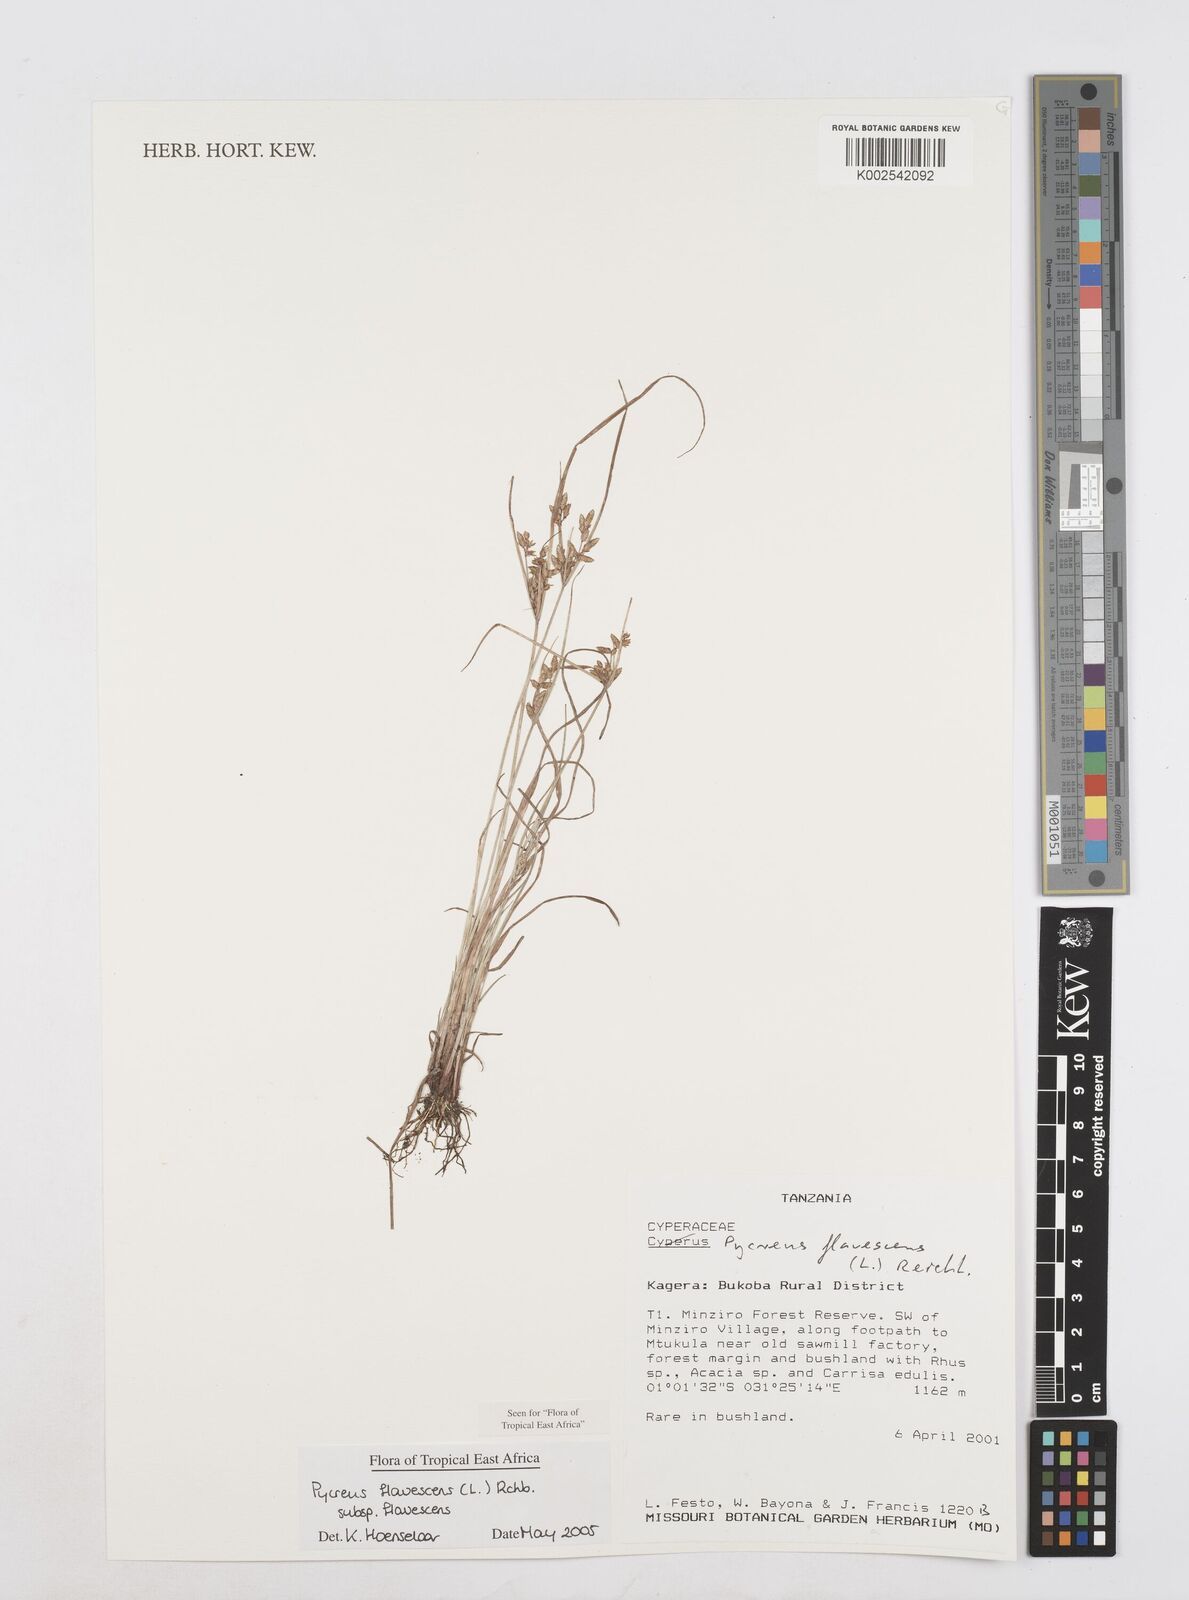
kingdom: Plantae
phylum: Tracheophyta
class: Liliopsida
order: Poales
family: Cyperaceae
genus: Cyperus
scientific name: Cyperus flavescens
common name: Yellow galingale
